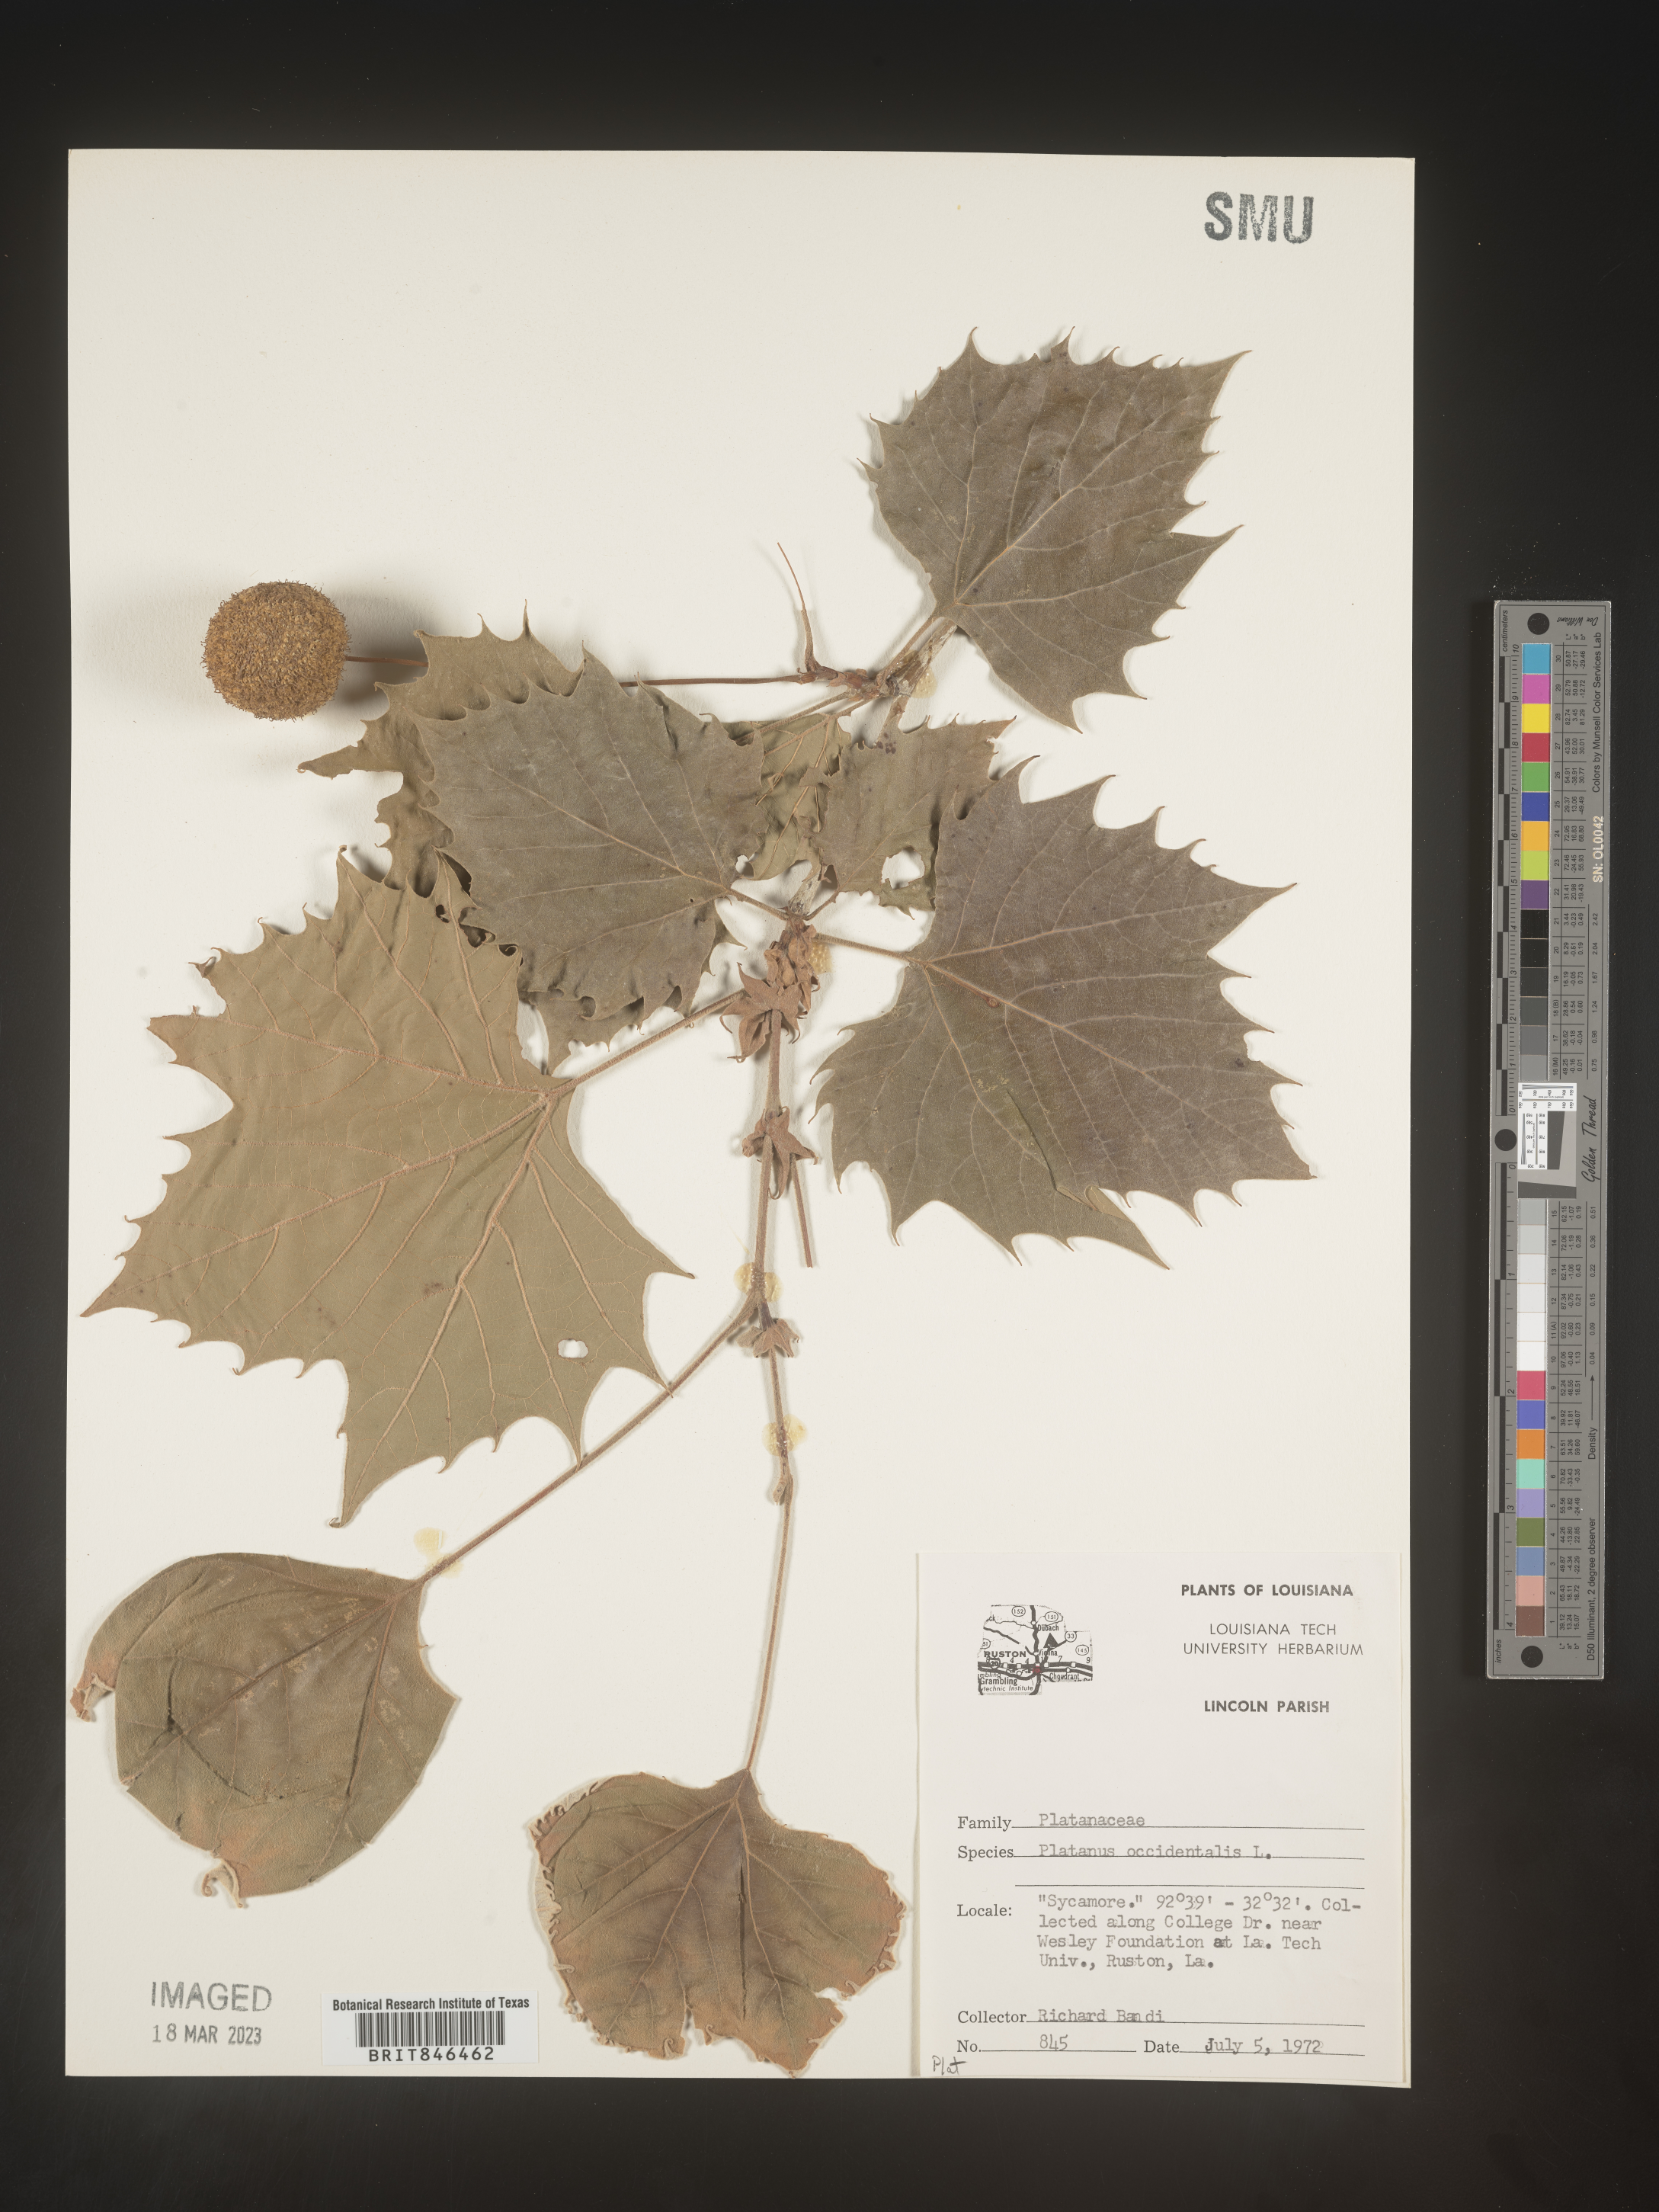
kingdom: Plantae
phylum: Tracheophyta
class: Magnoliopsida
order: Proteales
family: Platanaceae
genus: Platanus
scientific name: Platanus occidentalis
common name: American sycamore
